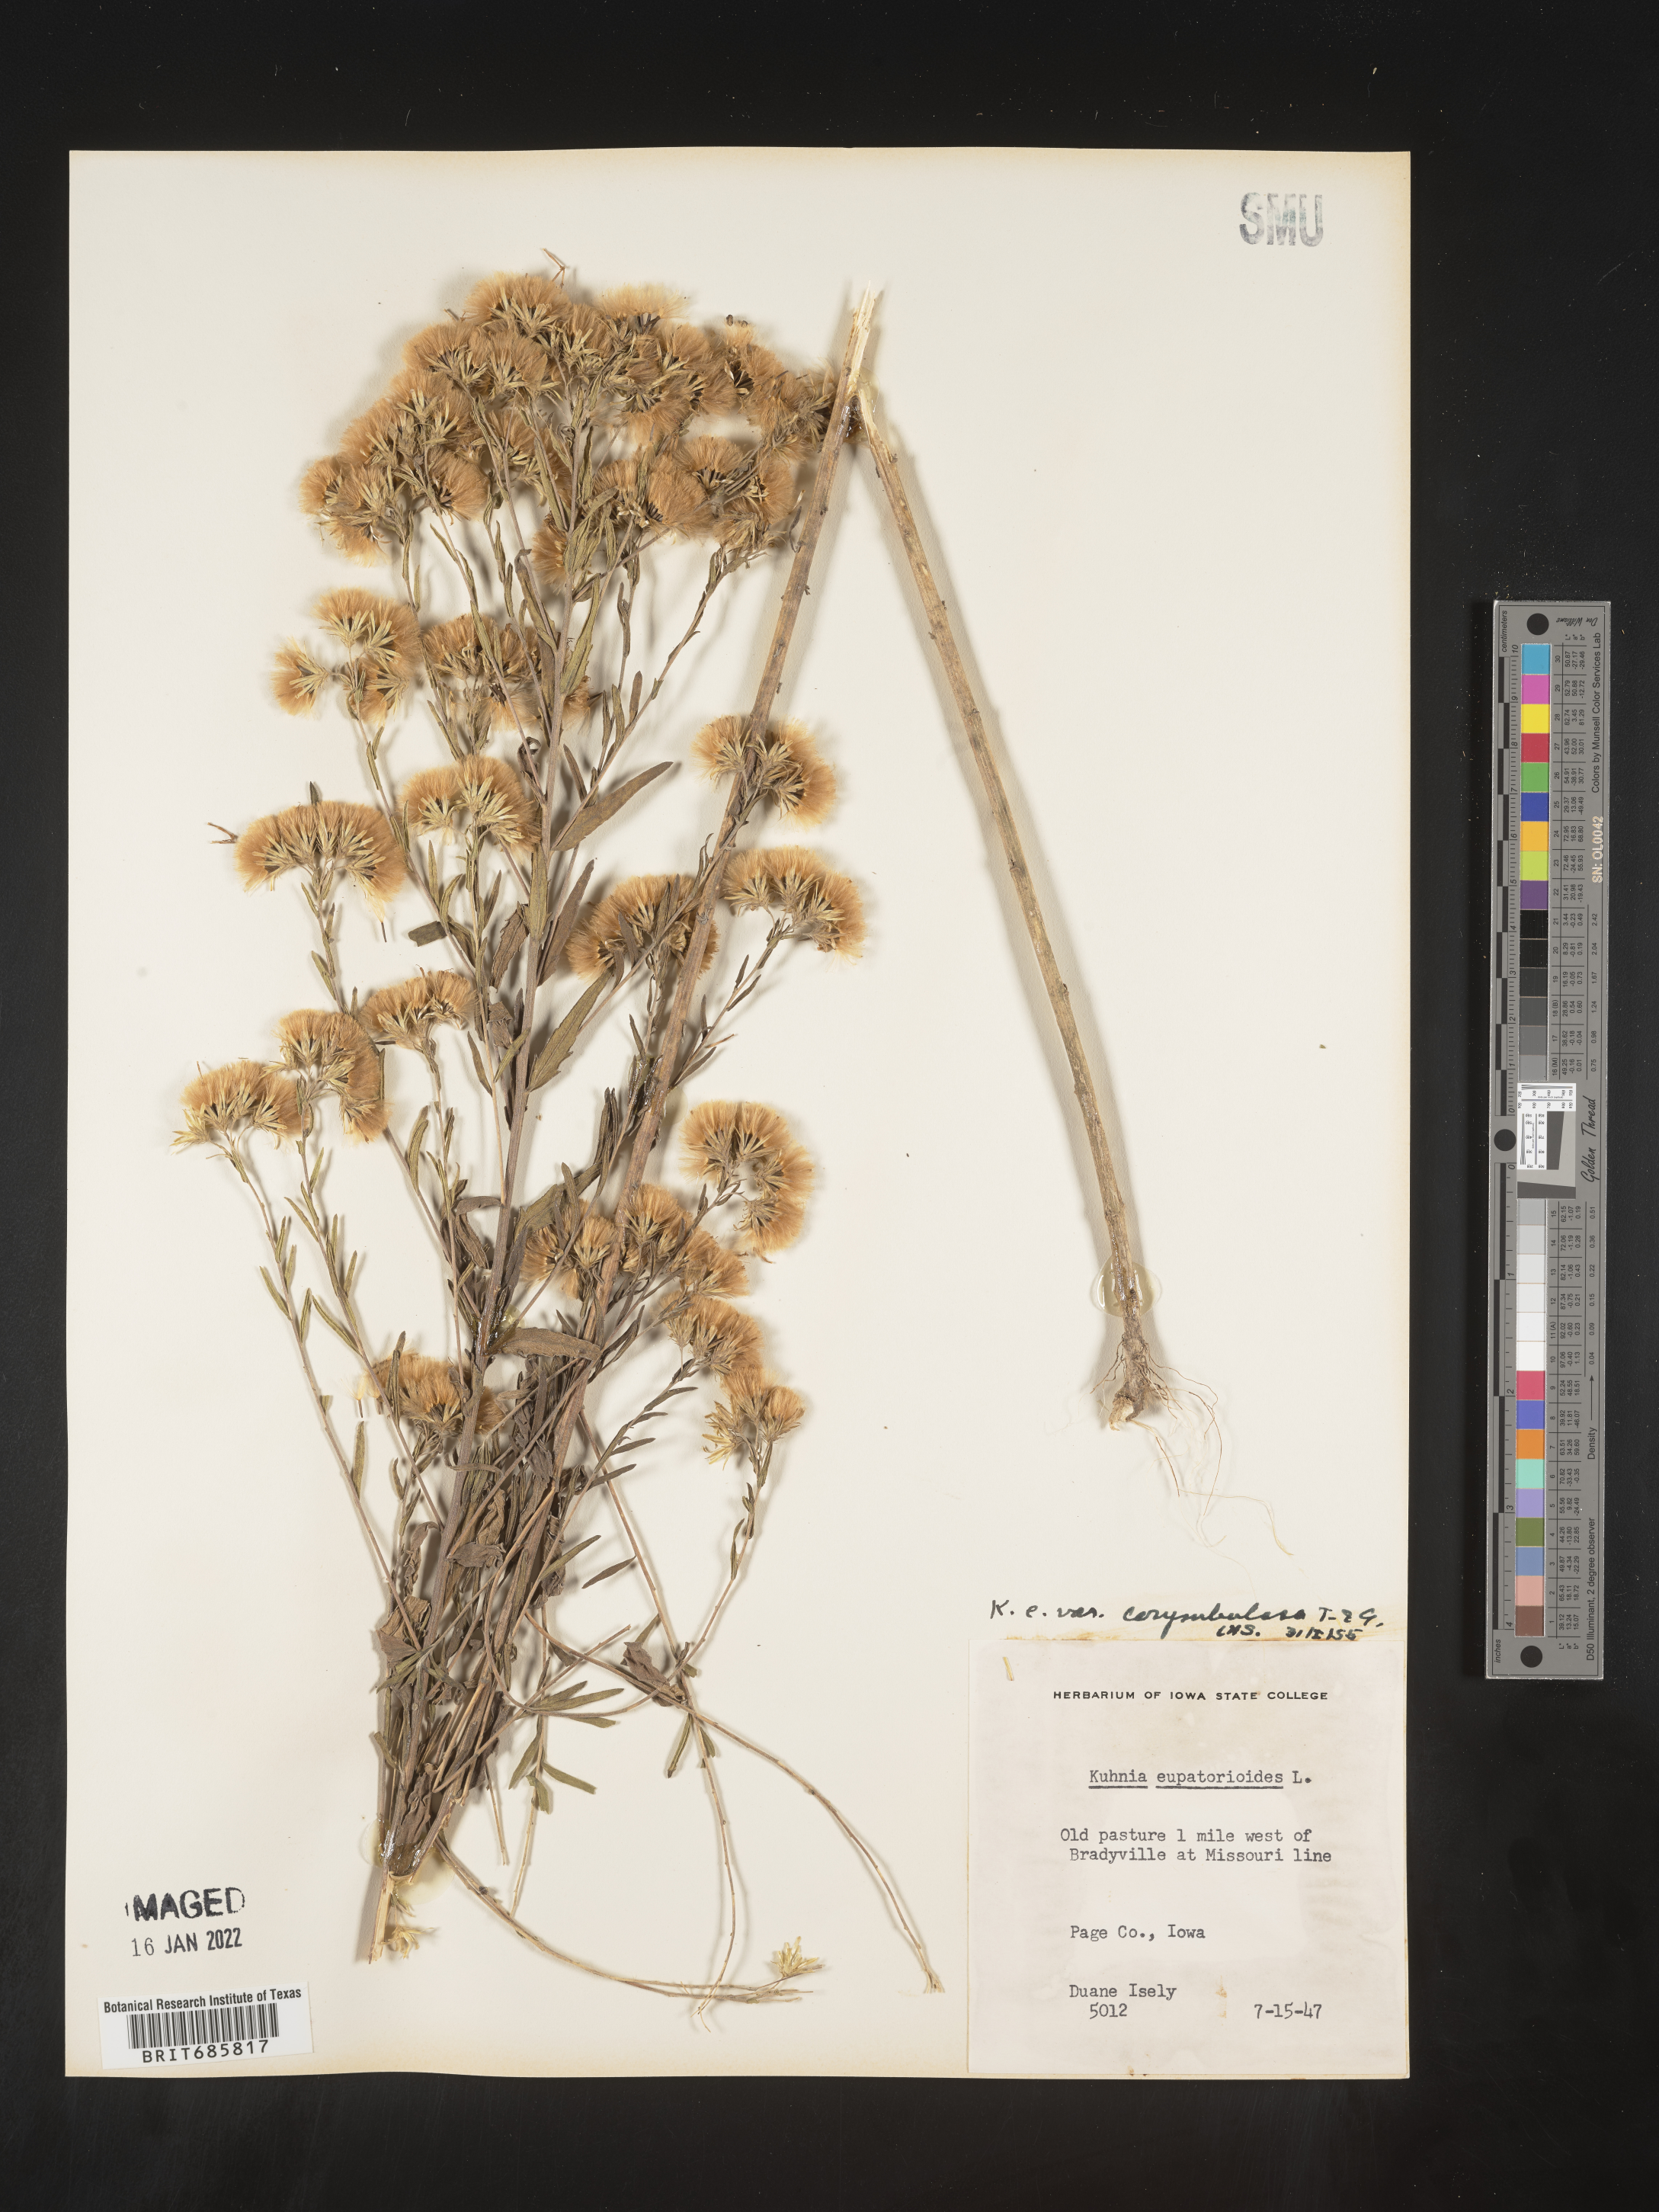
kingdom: Plantae
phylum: Tracheophyta
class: Magnoliopsida
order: Asterales
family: Asteraceae
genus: Brickellia
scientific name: Brickellia eupatorioides
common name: False boneset
